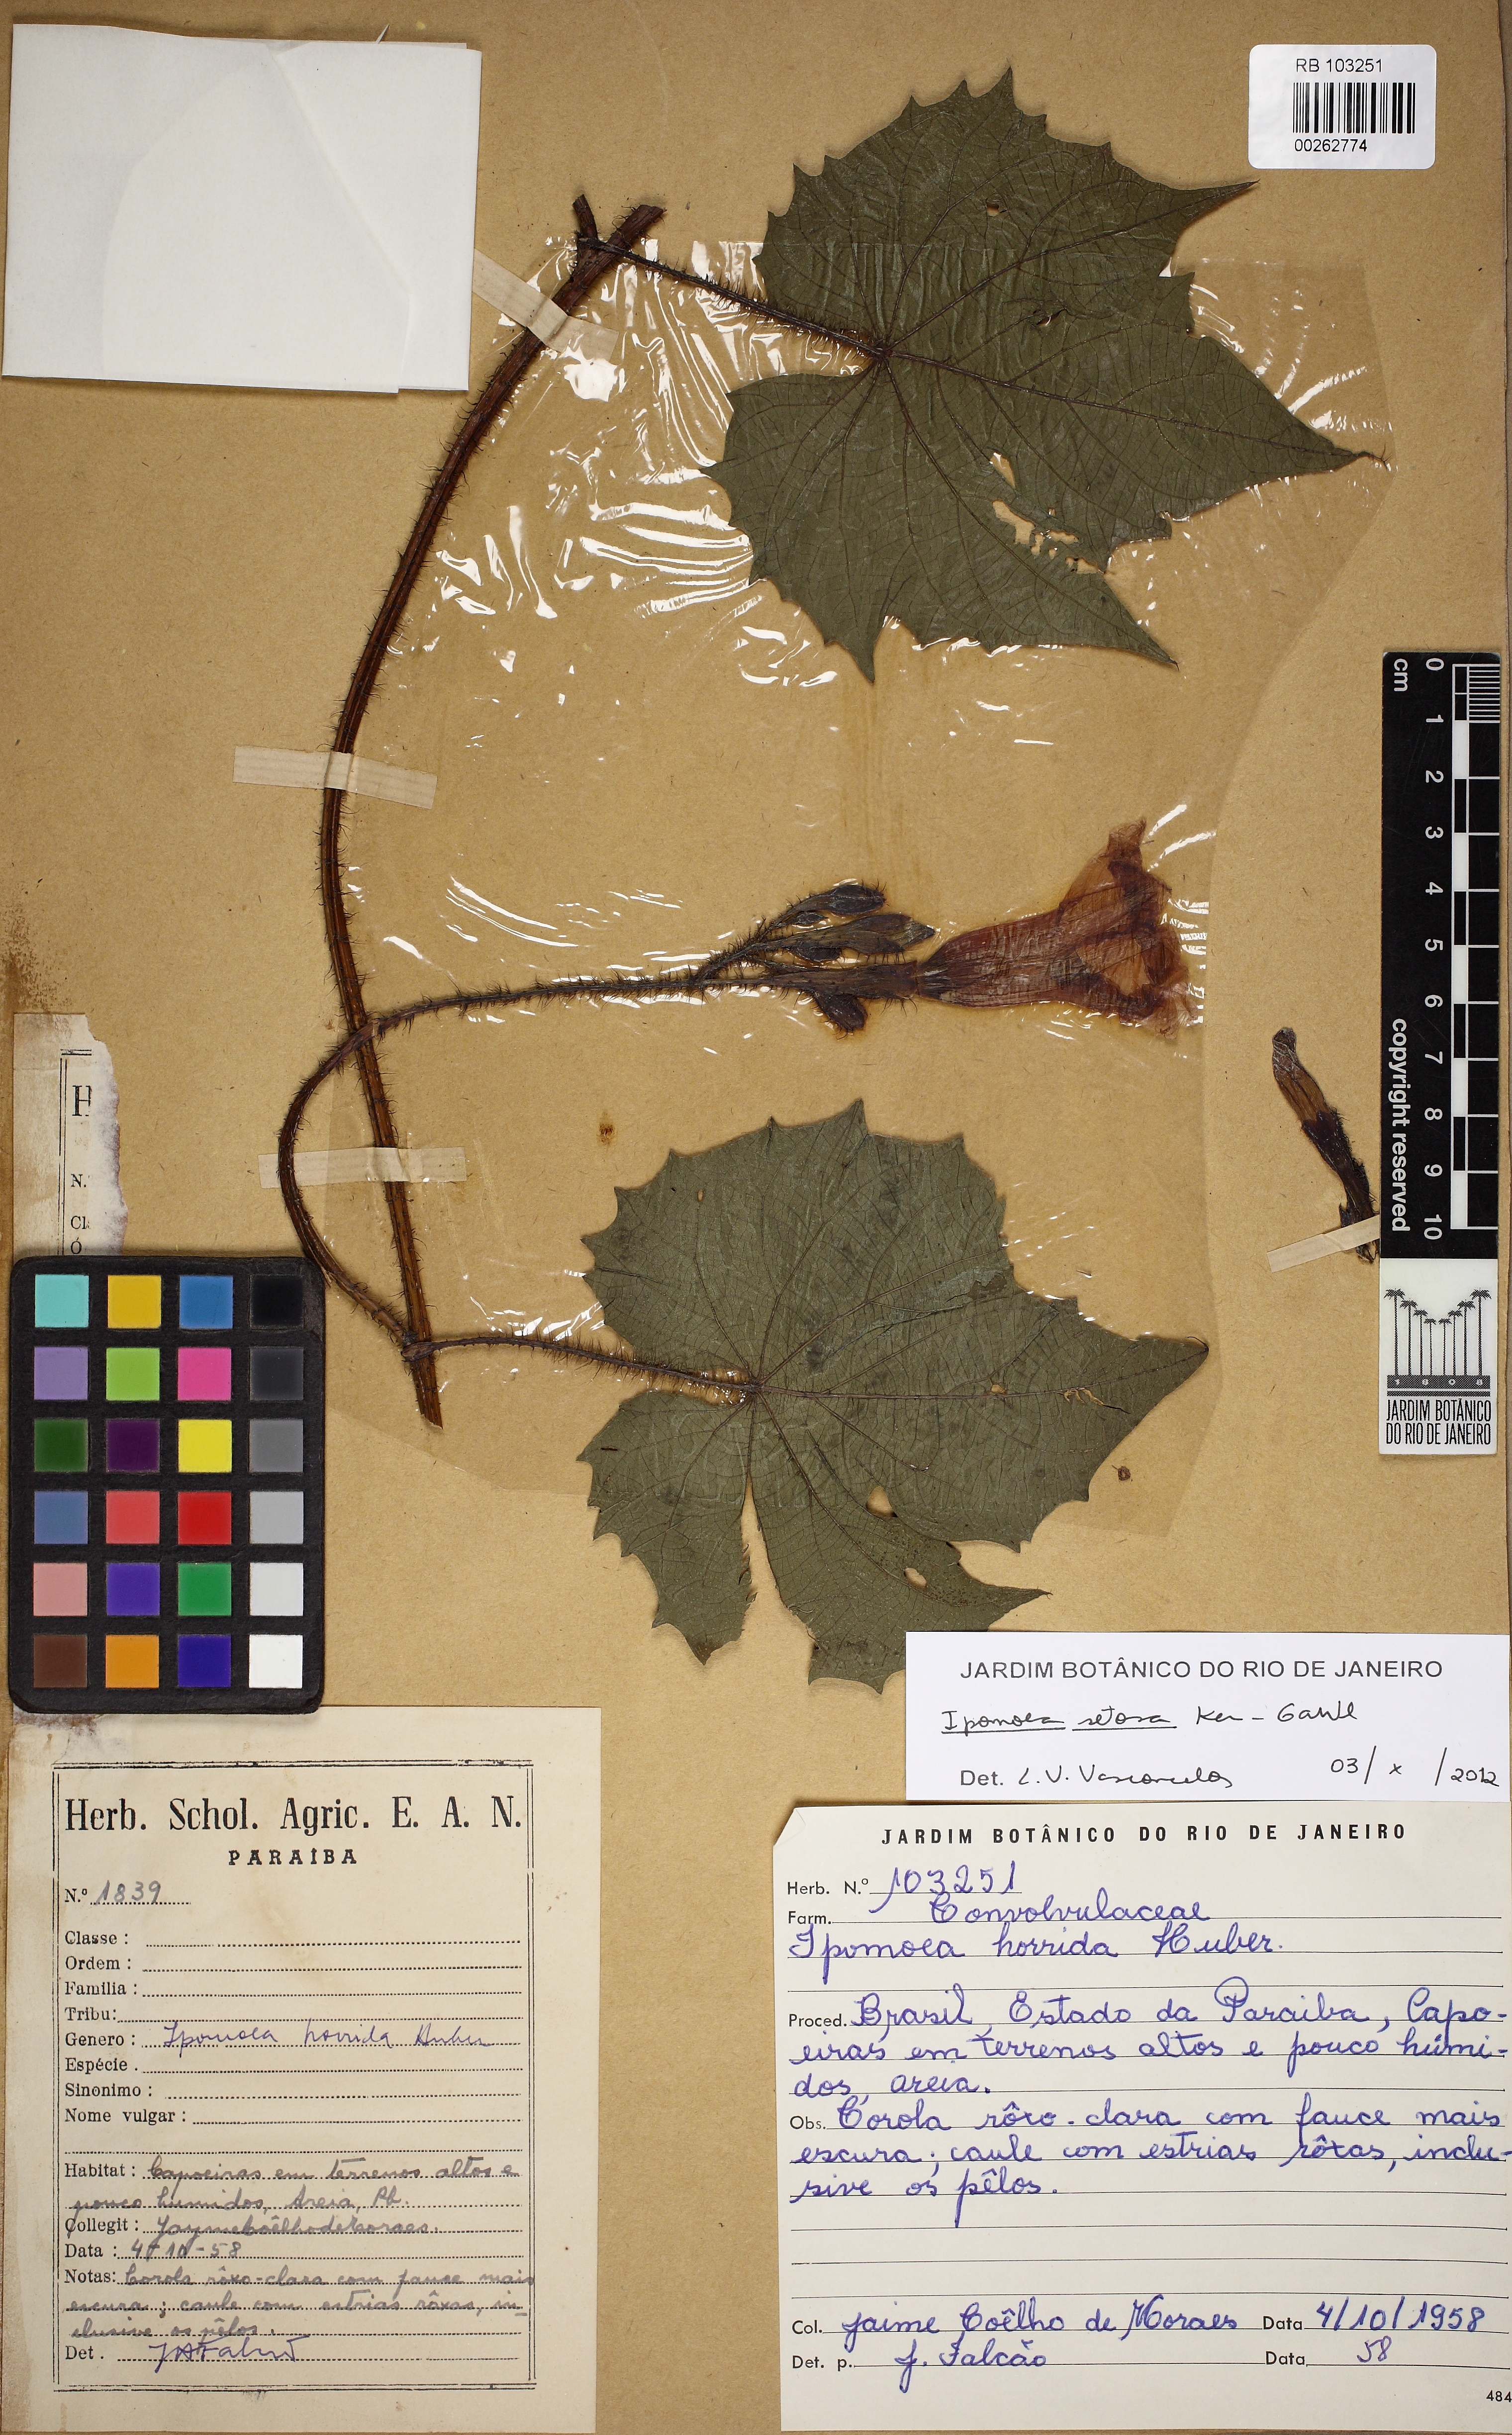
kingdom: Plantae
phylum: Tracheophyta
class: Magnoliopsida
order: Solanales
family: Convolvulaceae
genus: Ipomoea
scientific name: Ipomoea setosa
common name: Brazilian morning-glory
